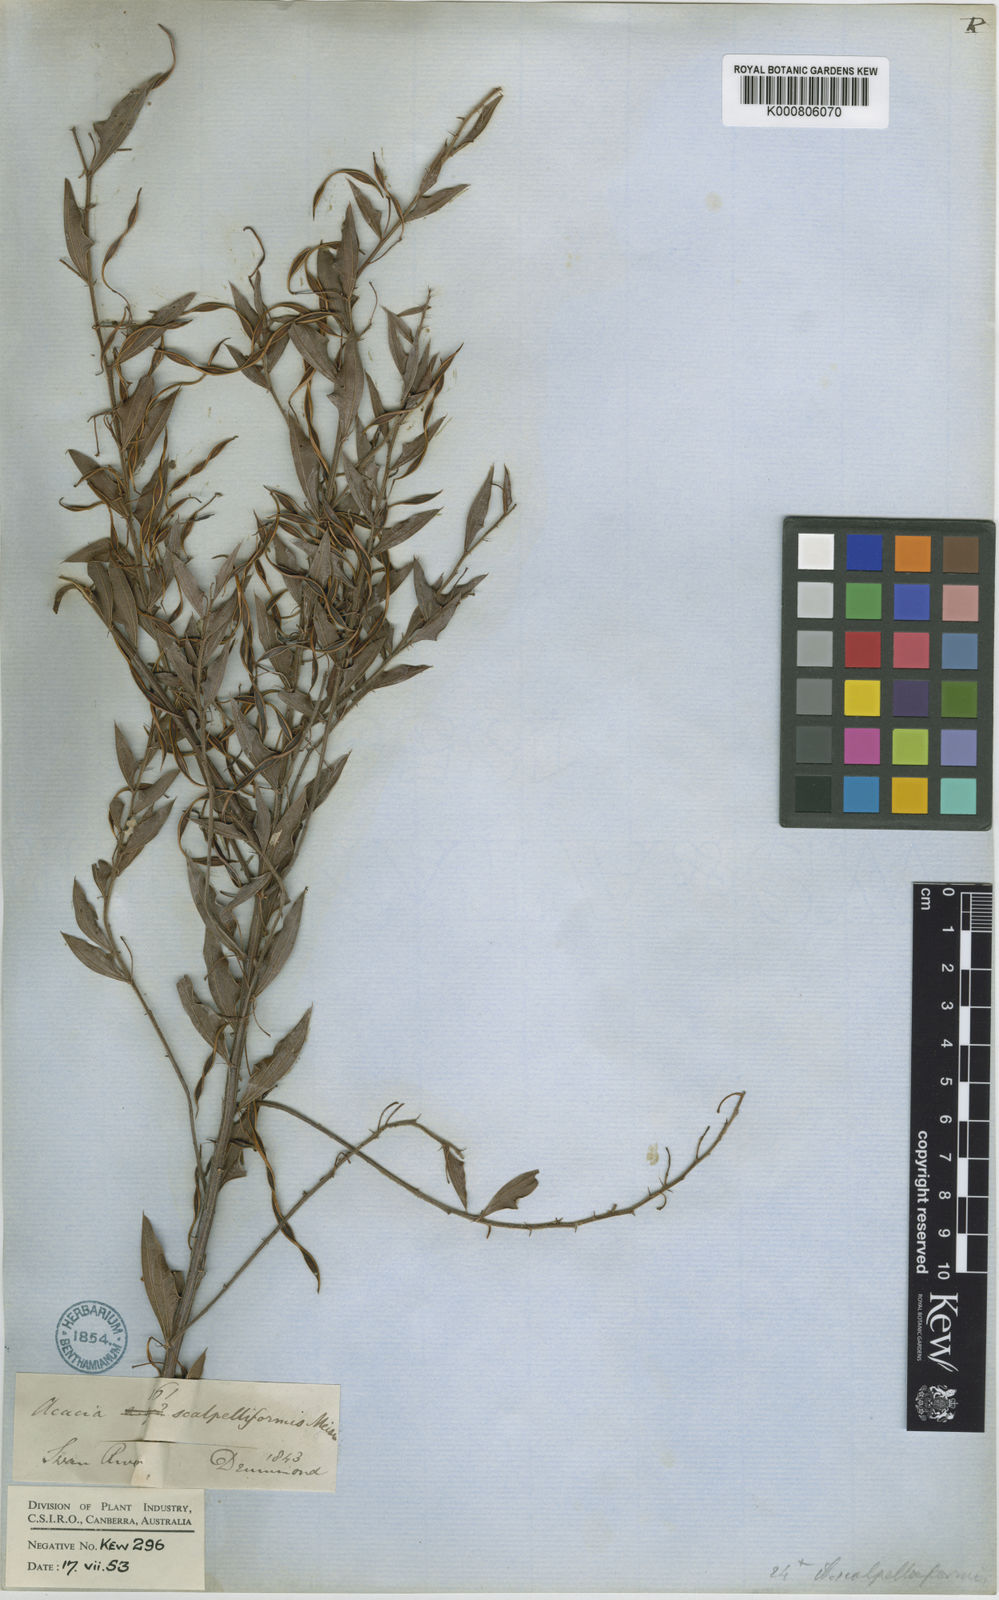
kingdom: Plantae
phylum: Tracheophyta
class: Magnoliopsida
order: Fabales
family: Fabaceae
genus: Acacia
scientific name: Acacia scalpelliformis
